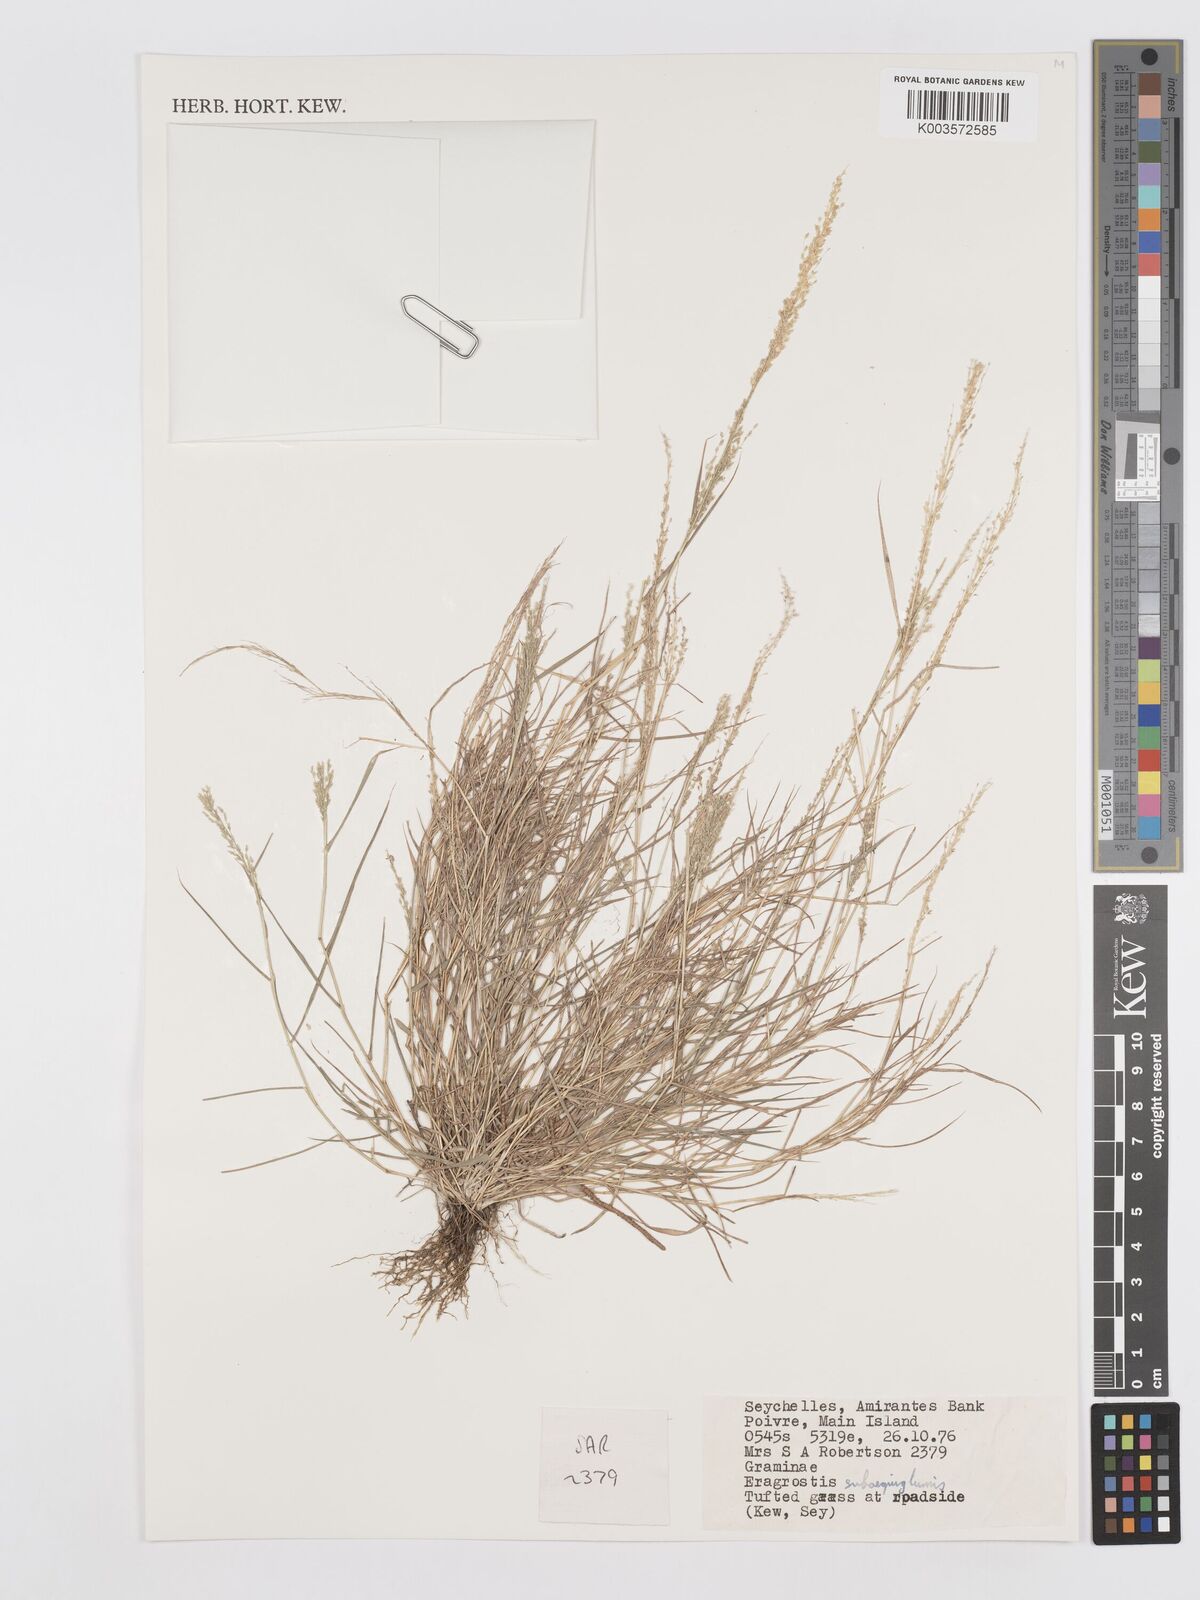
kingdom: Plantae
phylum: Tracheophyta
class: Liliopsida
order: Poales
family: Poaceae
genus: Eragrostis
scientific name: Eragrostis subaequiglumis
